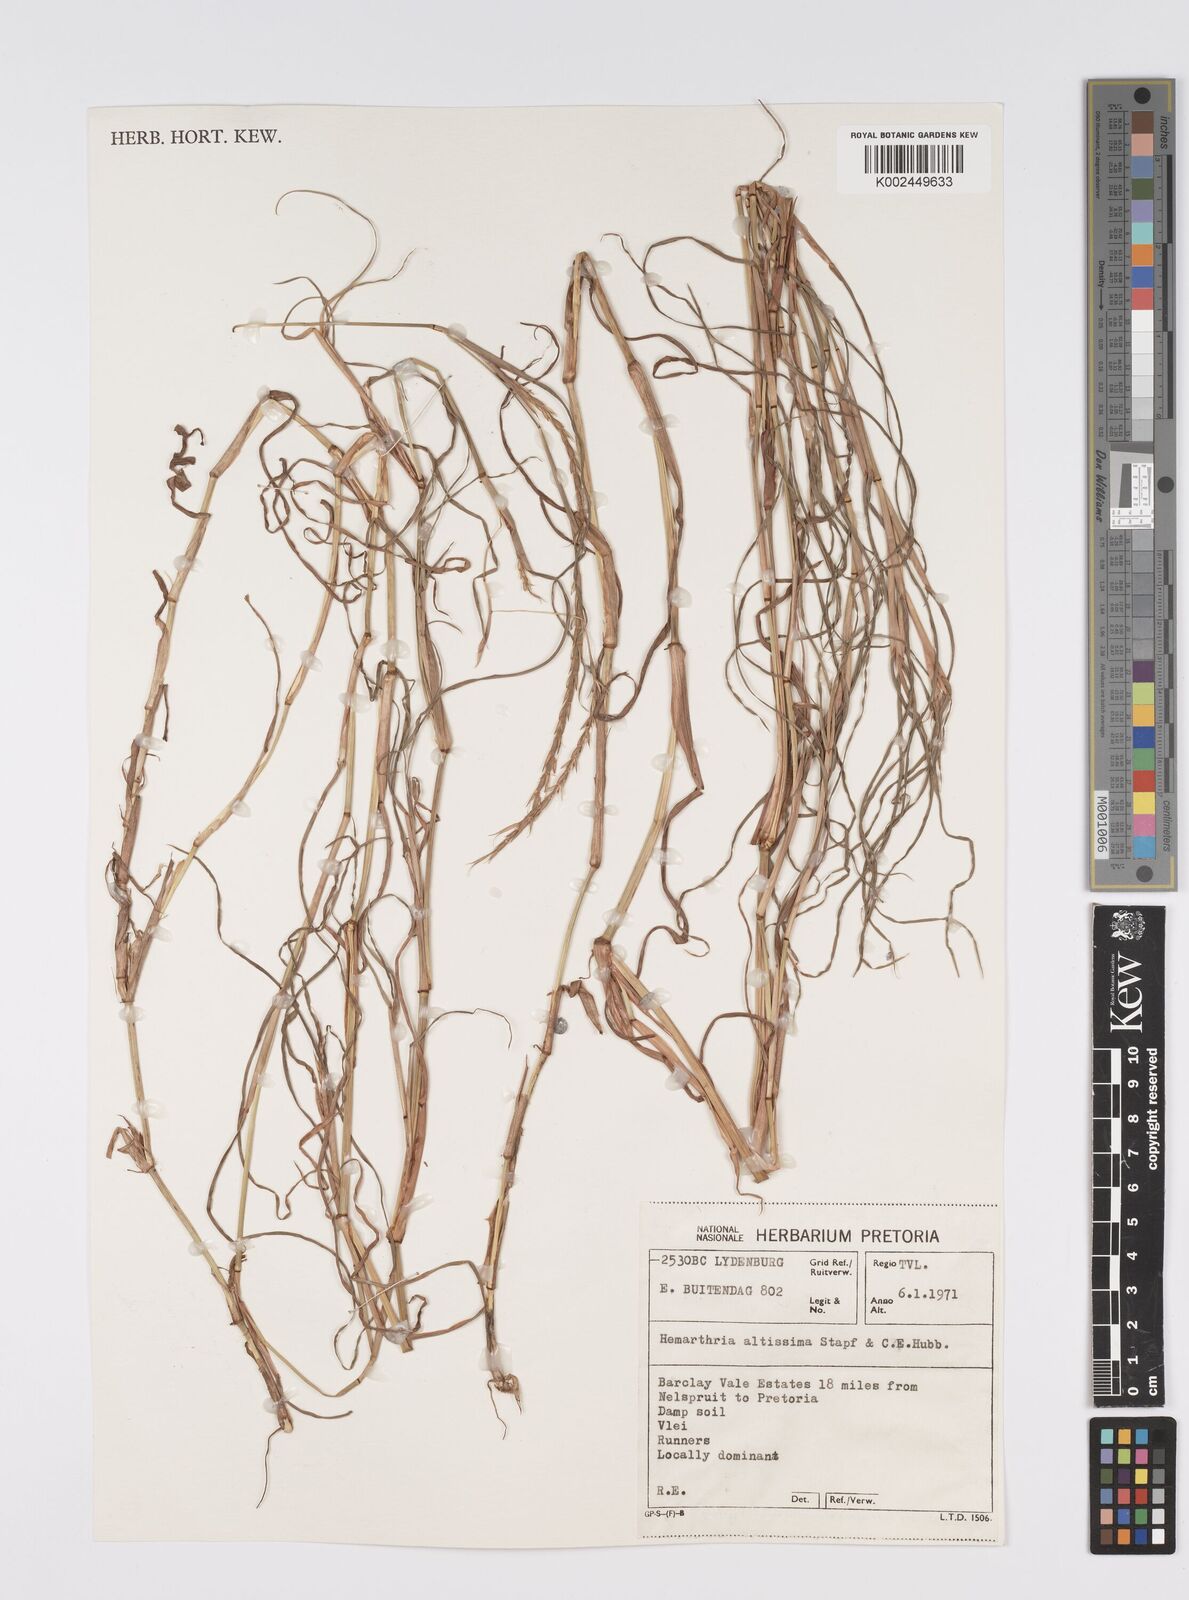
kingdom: Plantae
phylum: Tracheophyta
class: Liliopsida
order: Poales
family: Poaceae
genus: Hemarthria
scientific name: Hemarthria altissima
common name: African jointgrass
